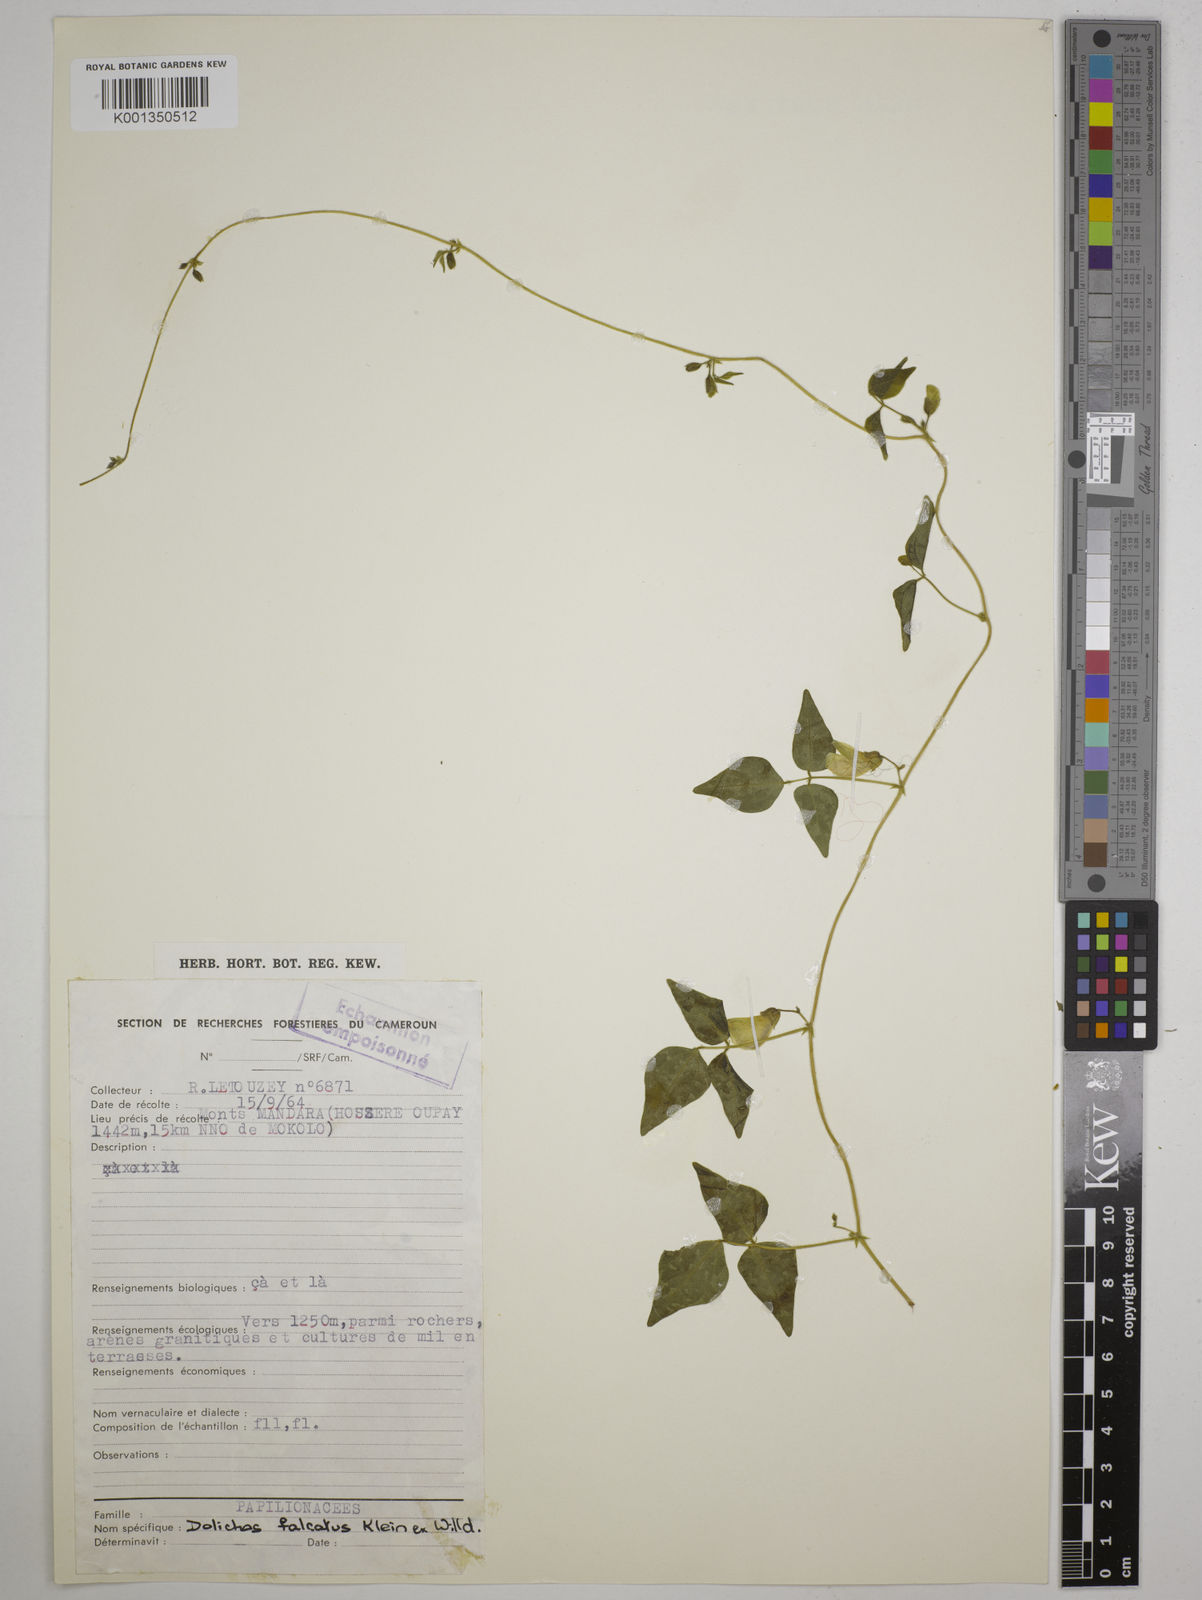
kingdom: Plantae
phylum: Tracheophyta
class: Magnoliopsida
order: Fabales
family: Fabaceae
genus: Dolichos
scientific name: Dolichos
